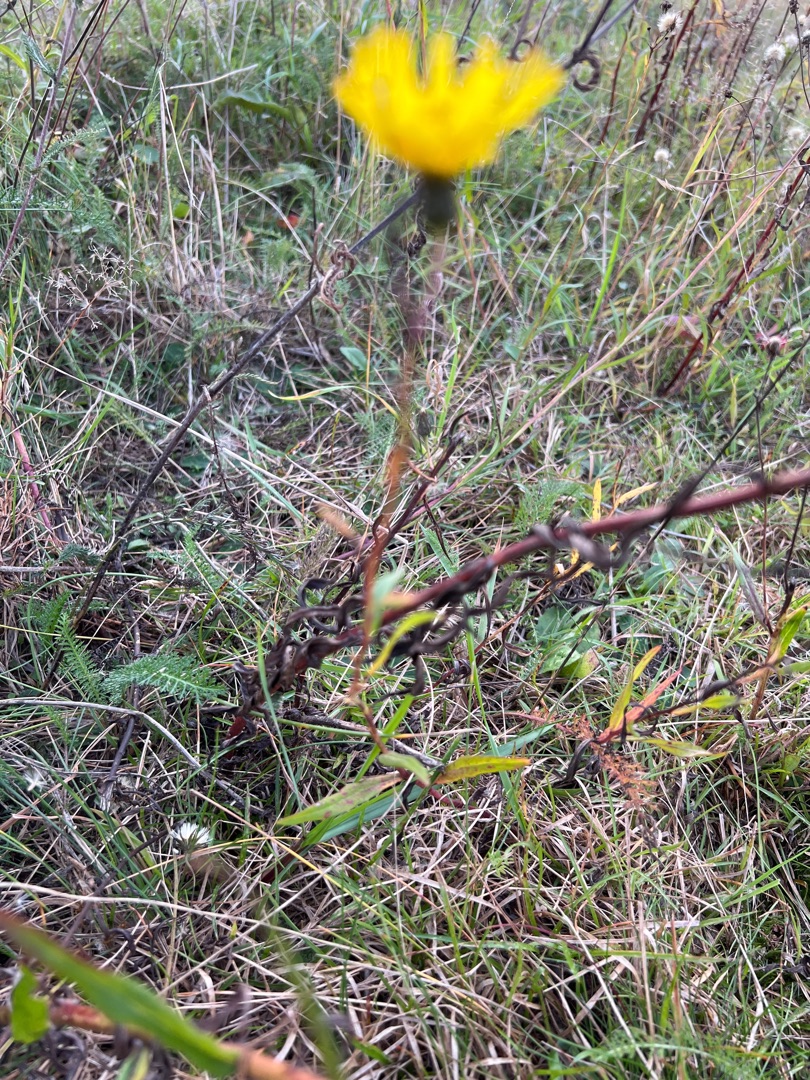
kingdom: Plantae
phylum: Tracheophyta
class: Magnoliopsida
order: Asterales
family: Asteraceae
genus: Hieracium
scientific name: Hieracium umbellatum
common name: Smalbladet høgeurt
